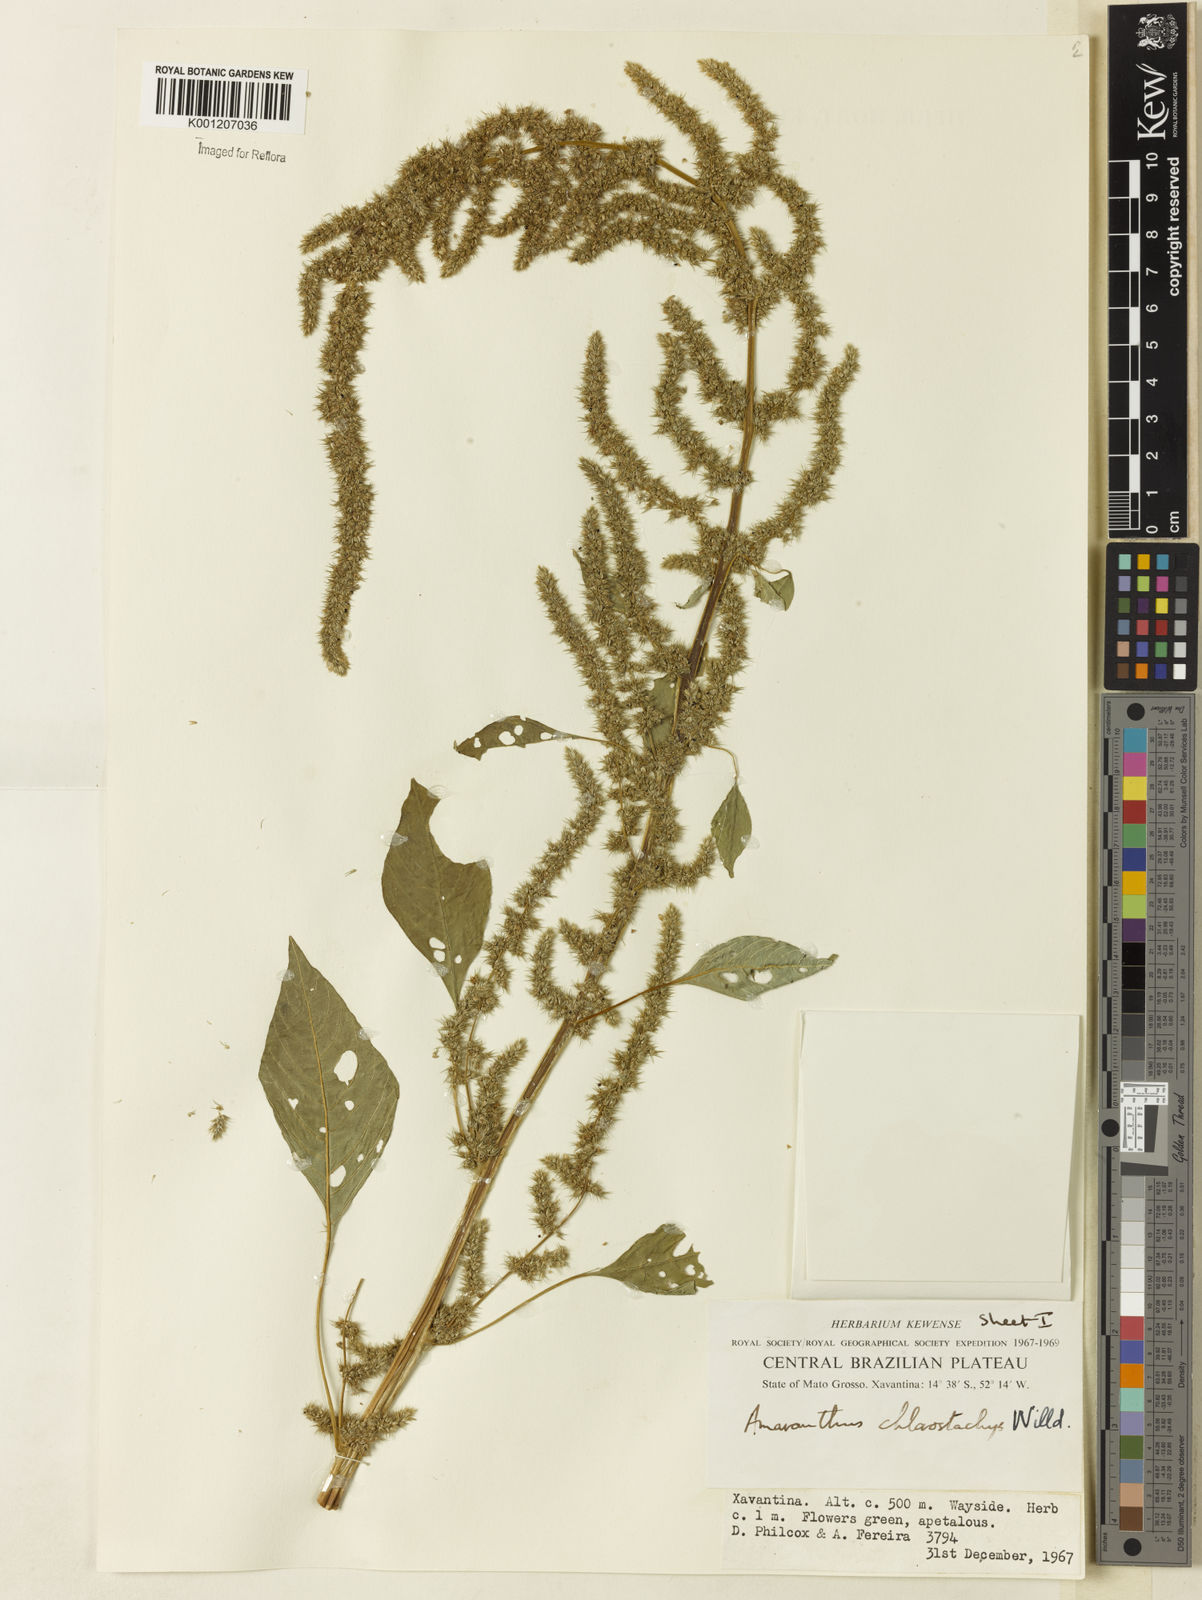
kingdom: Plantae
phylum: Tracheophyta
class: Magnoliopsida
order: Caryophyllales
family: Amaranthaceae
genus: Amaranthus
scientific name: Amaranthus
